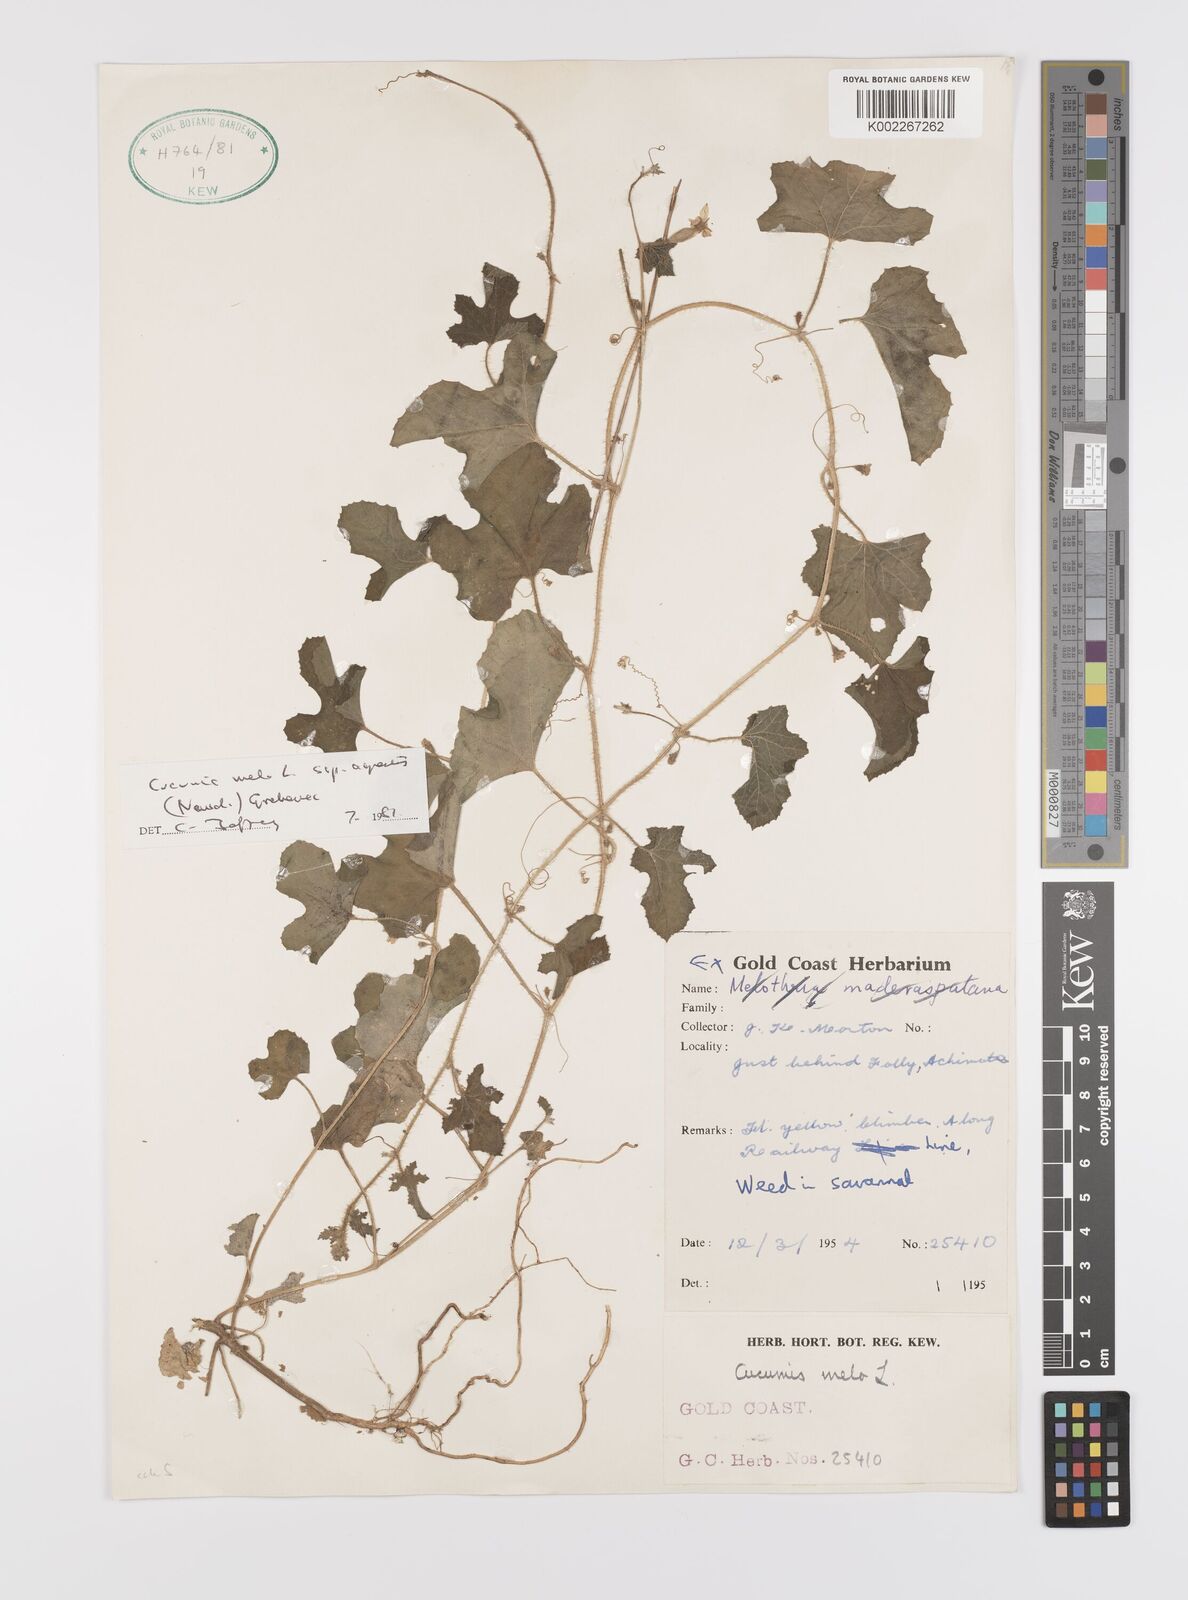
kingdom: Plantae
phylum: Tracheophyta
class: Magnoliopsida
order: Cucurbitales
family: Cucurbitaceae
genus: Cucumis
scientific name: Cucumis melo
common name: Melon
